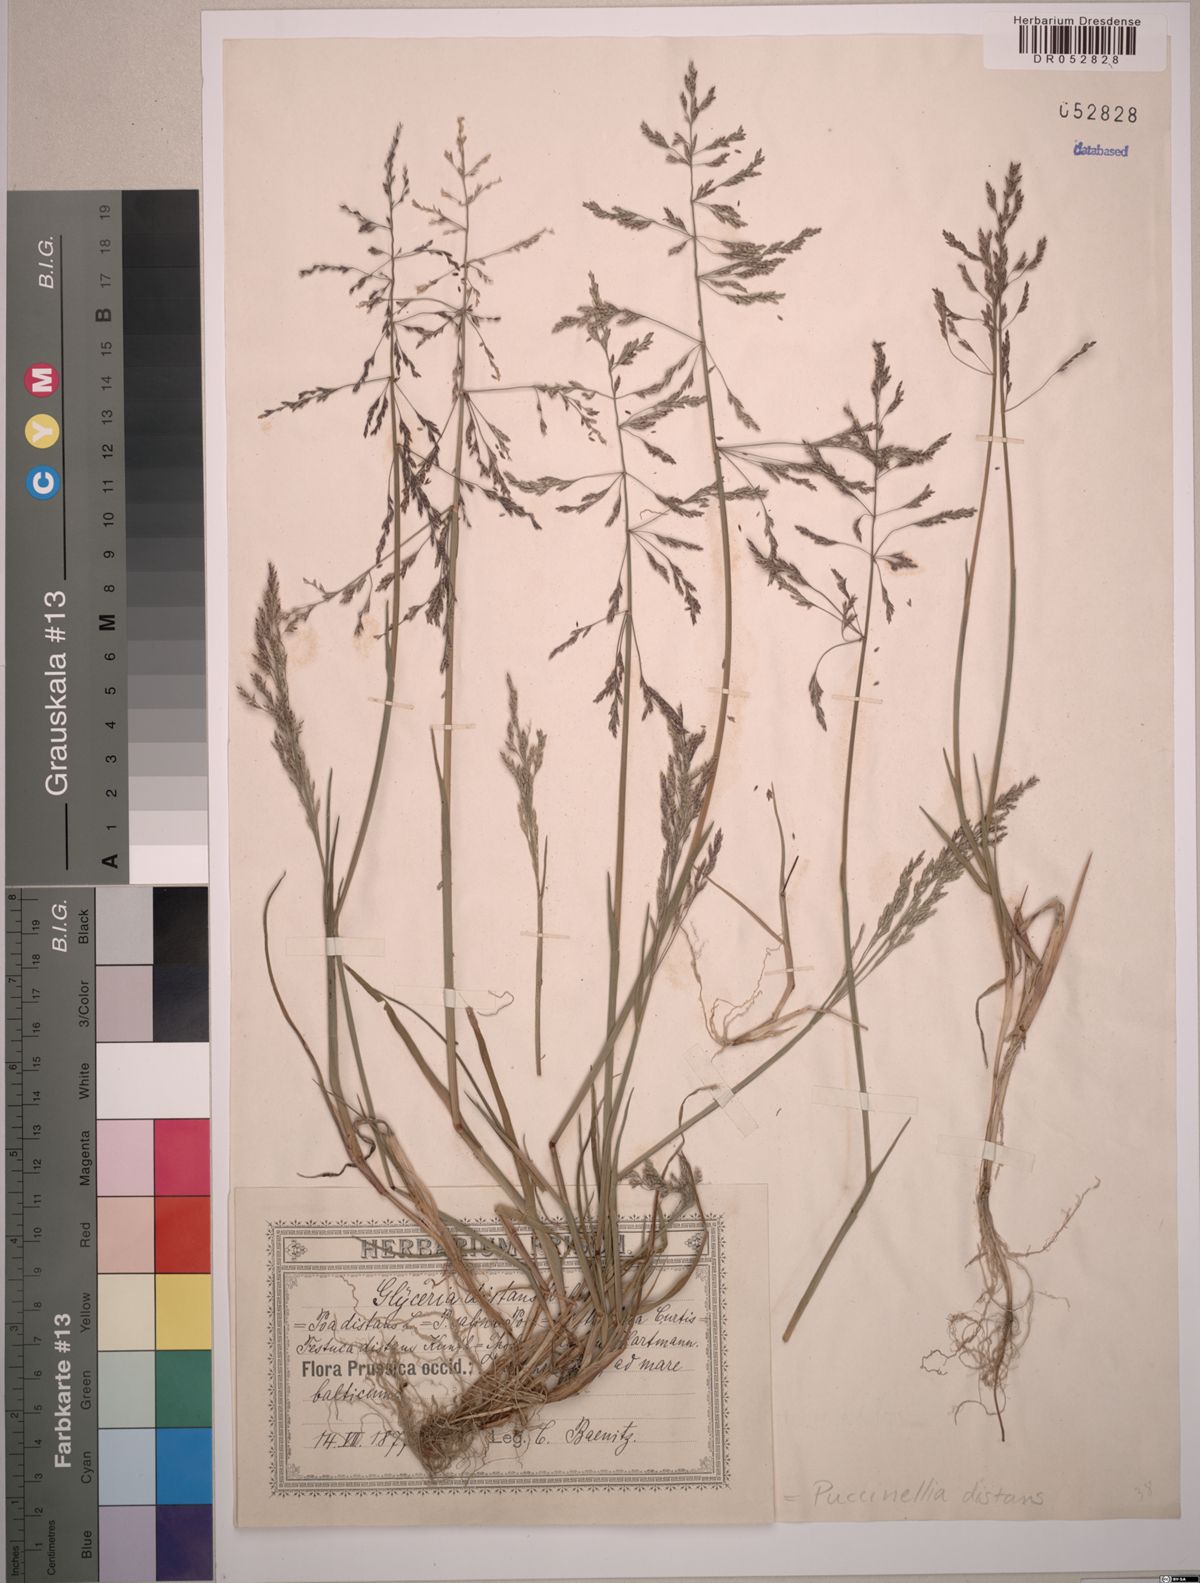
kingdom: Plantae
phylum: Tracheophyta
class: Liliopsida
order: Poales
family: Poaceae
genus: Puccinellia
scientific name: Puccinellia distans
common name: Weeping alkaligrass
